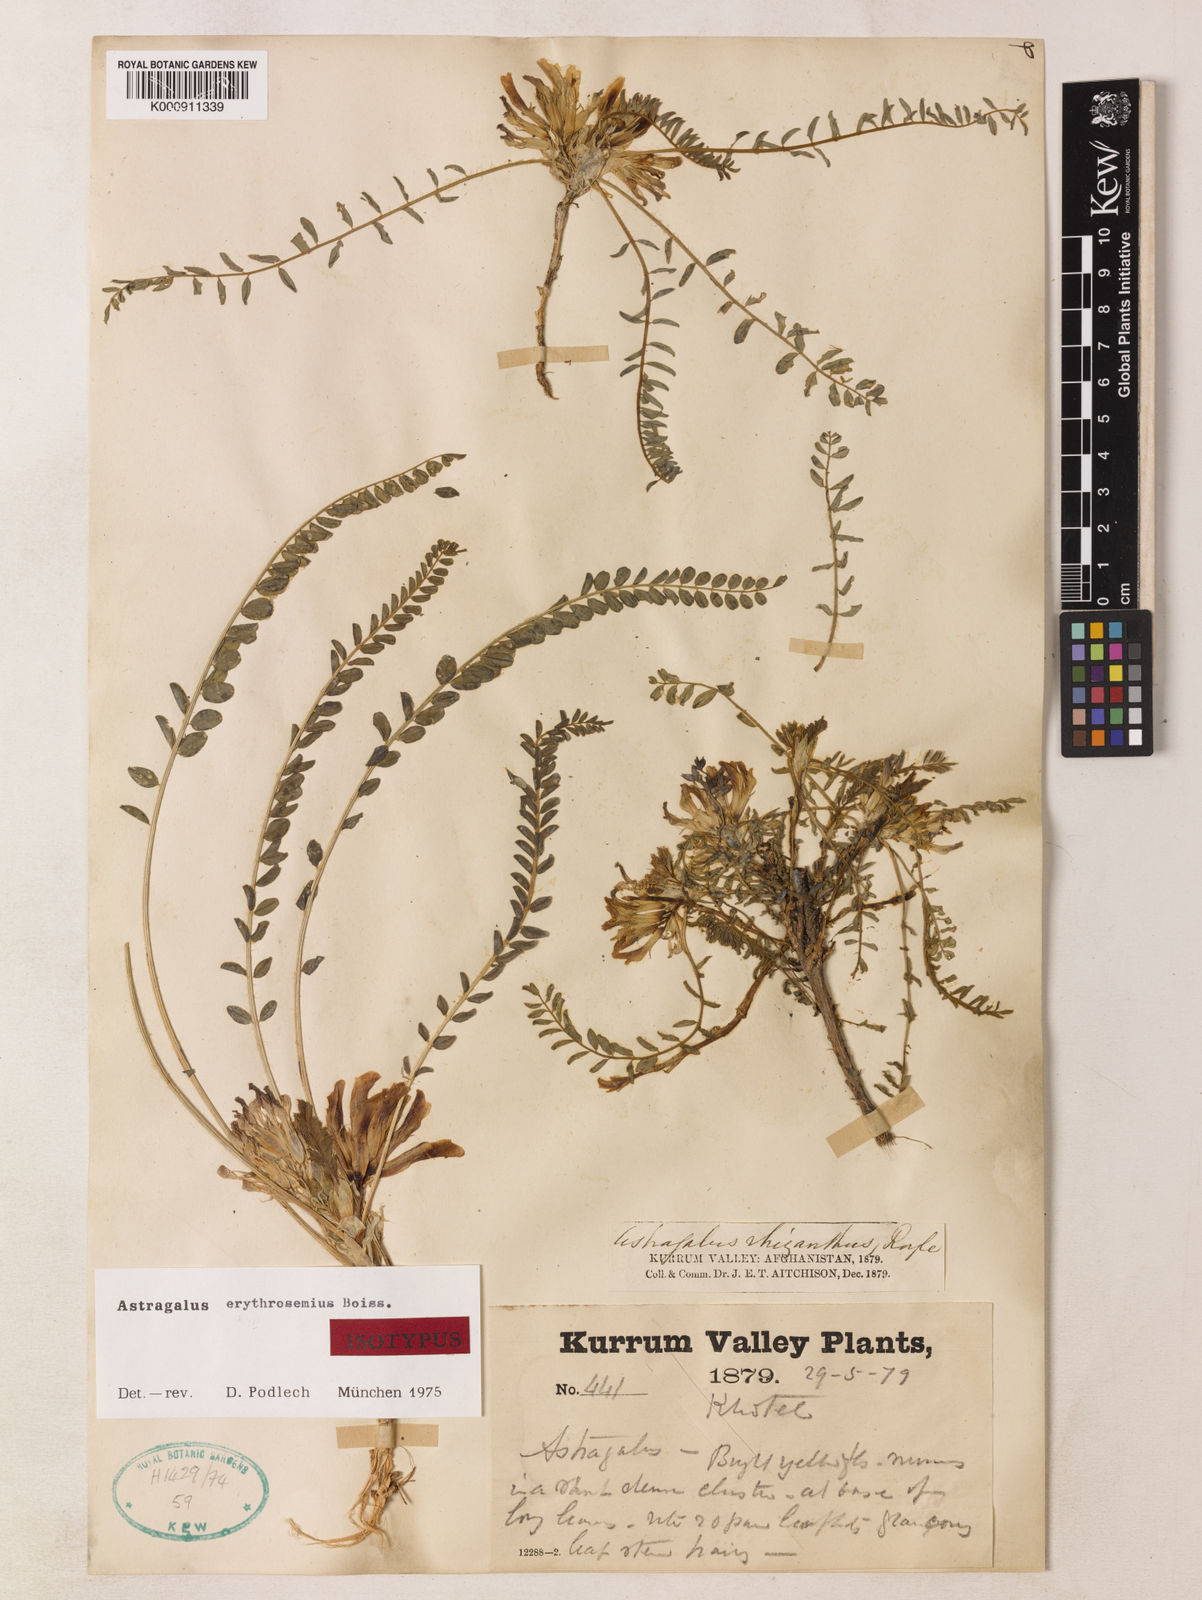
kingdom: Plantae
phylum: Tracheophyta
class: Magnoliopsida
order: Fabales
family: Fabaceae
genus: Astragalus
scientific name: Astragalus erythrosemius
